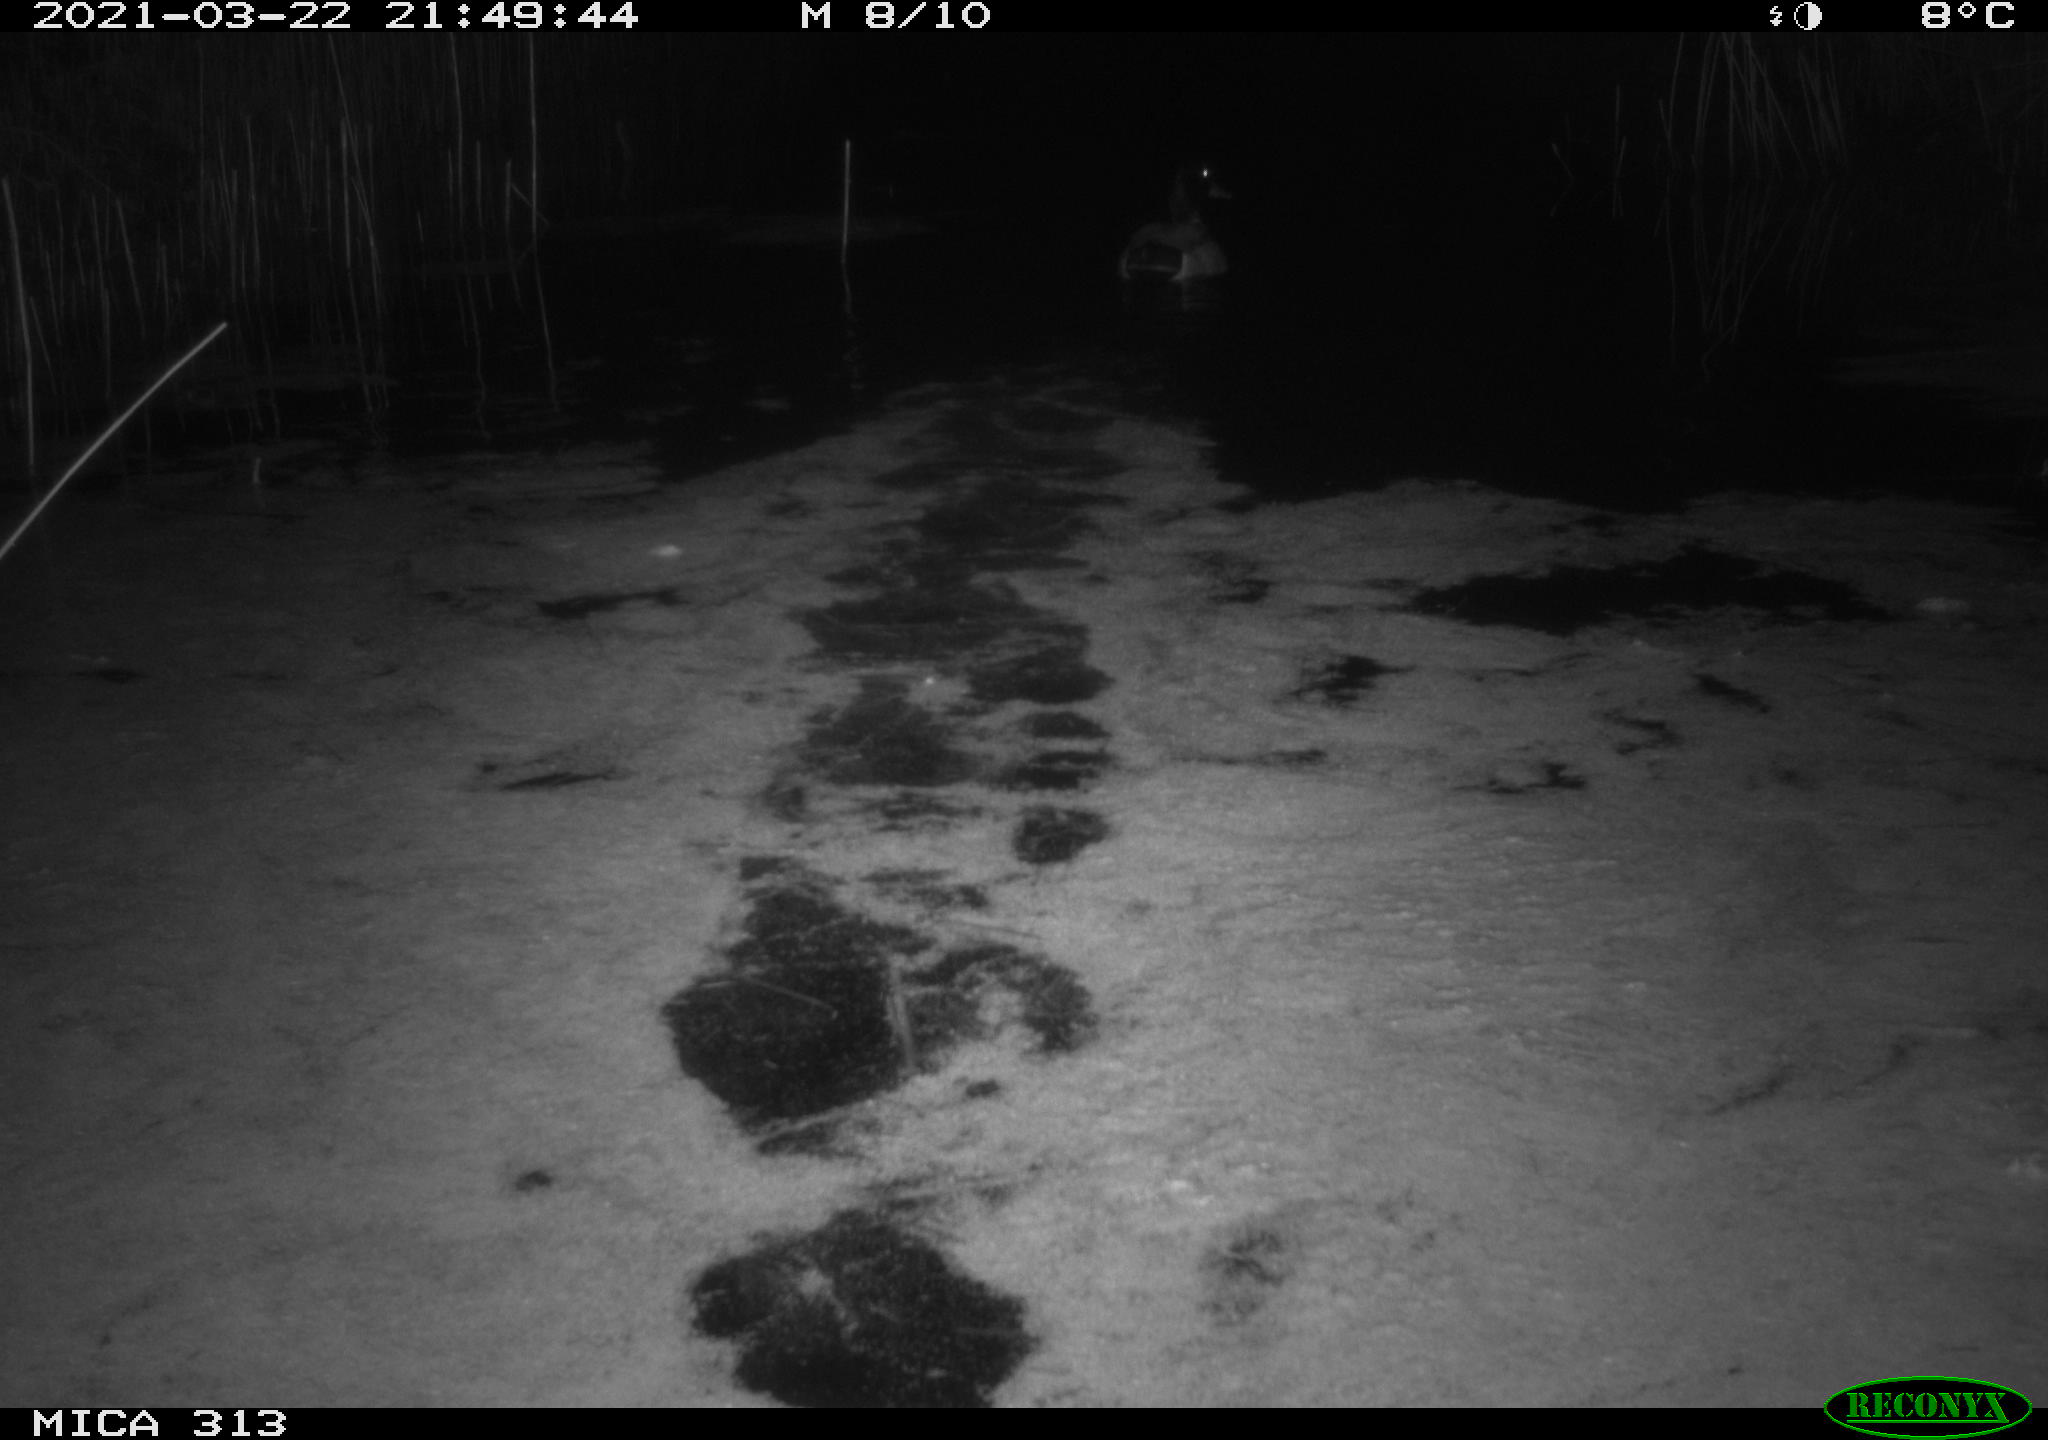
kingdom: Animalia
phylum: Chordata
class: Aves
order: Anseriformes
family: Anatidae
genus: Anas
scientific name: Anas platyrhynchos
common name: Mallard
